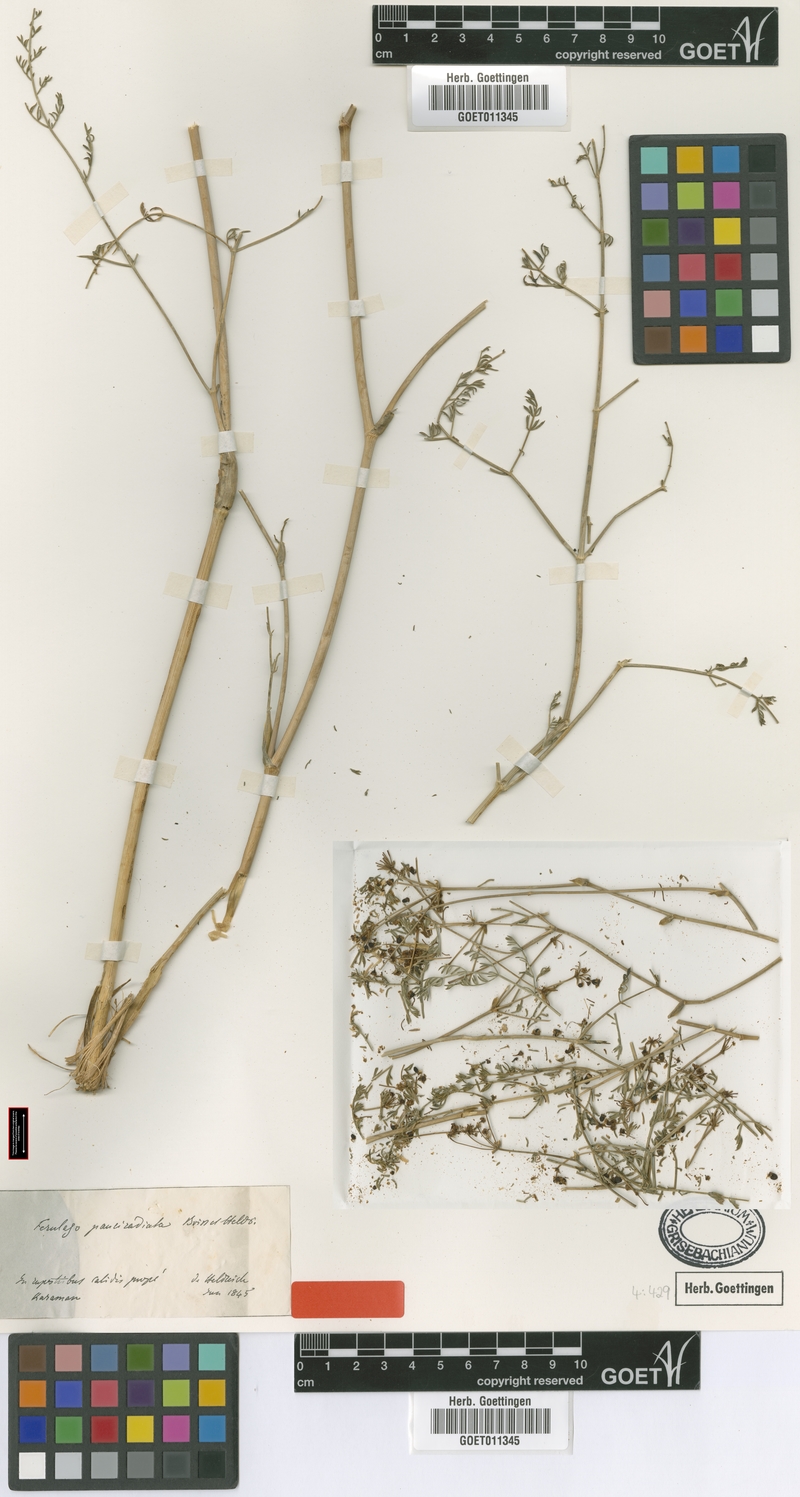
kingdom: Plantae
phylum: Tracheophyta
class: Magnoliopsida
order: Apiales
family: Apiaceae
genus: Ferulago
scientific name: Ferulago armena
